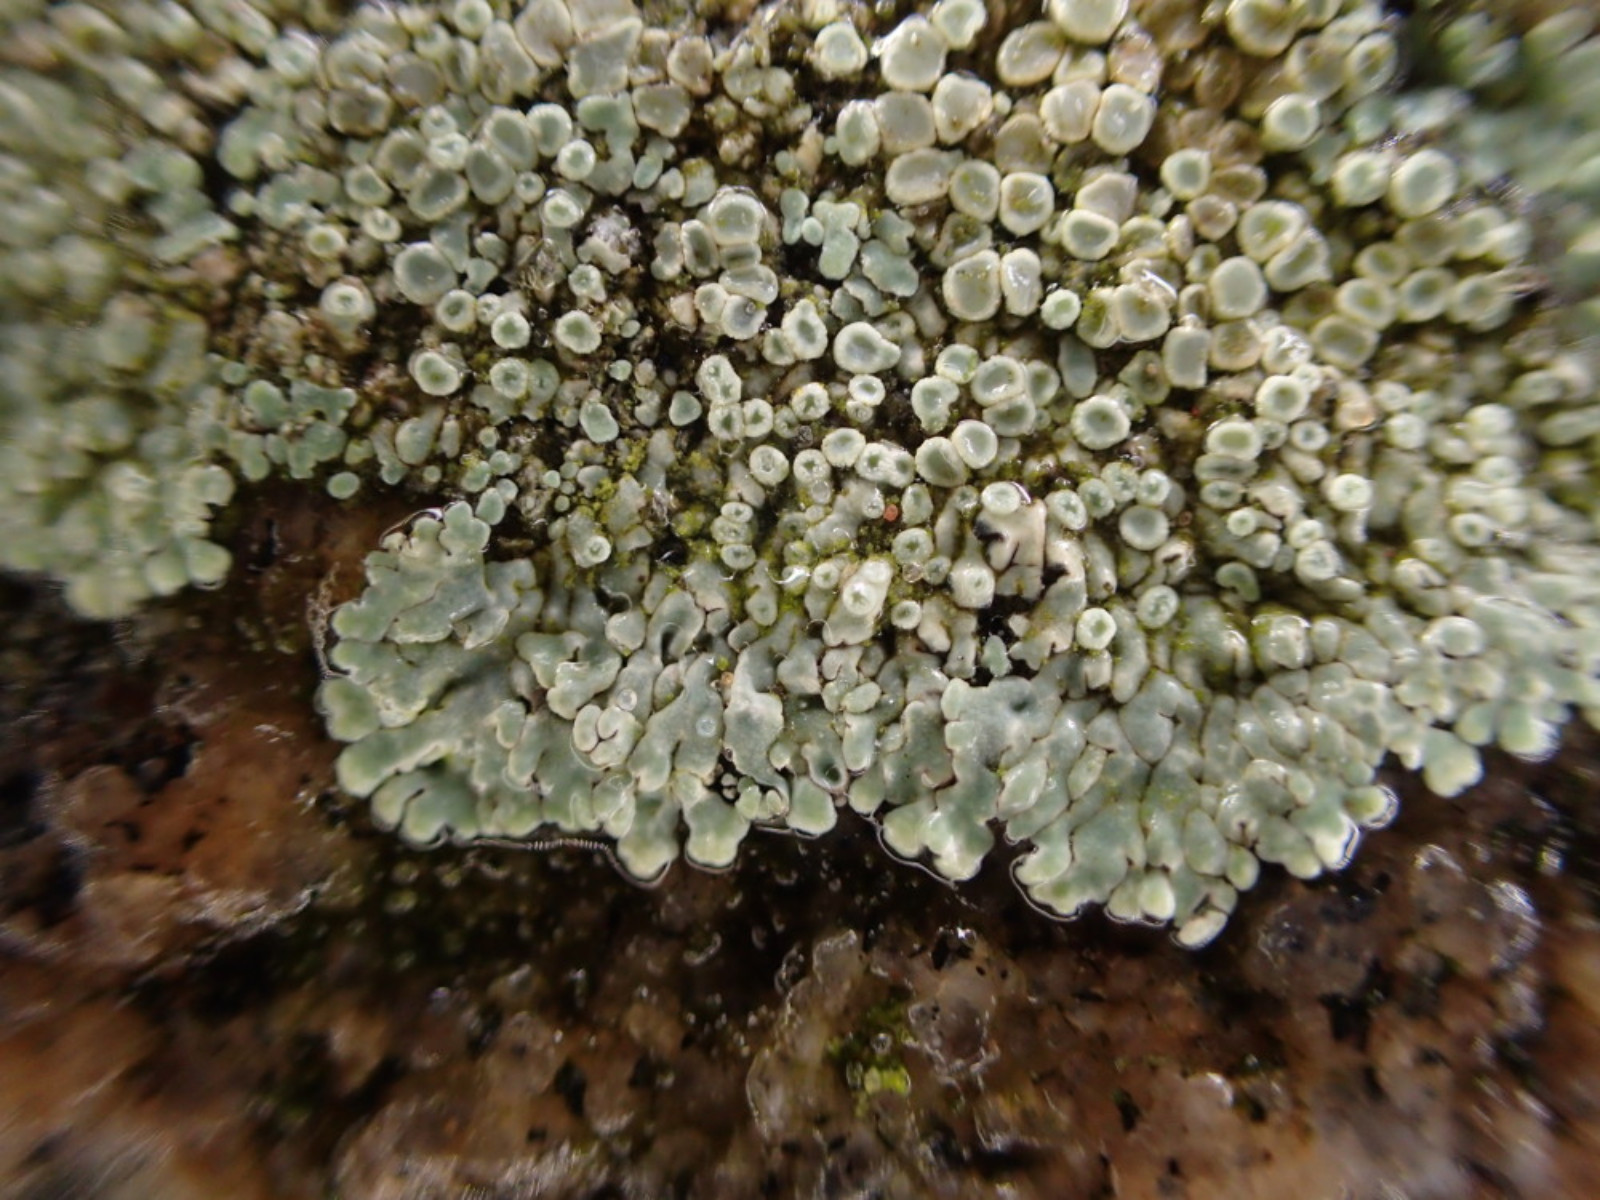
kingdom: Fungi
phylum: Ascomycota
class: Lecanoromycetes
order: Lecanorales
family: Lecanoraceae
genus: Protoparmeliopsis
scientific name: Protoparmeliopsis muralis
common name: randfliget kantskivelav
